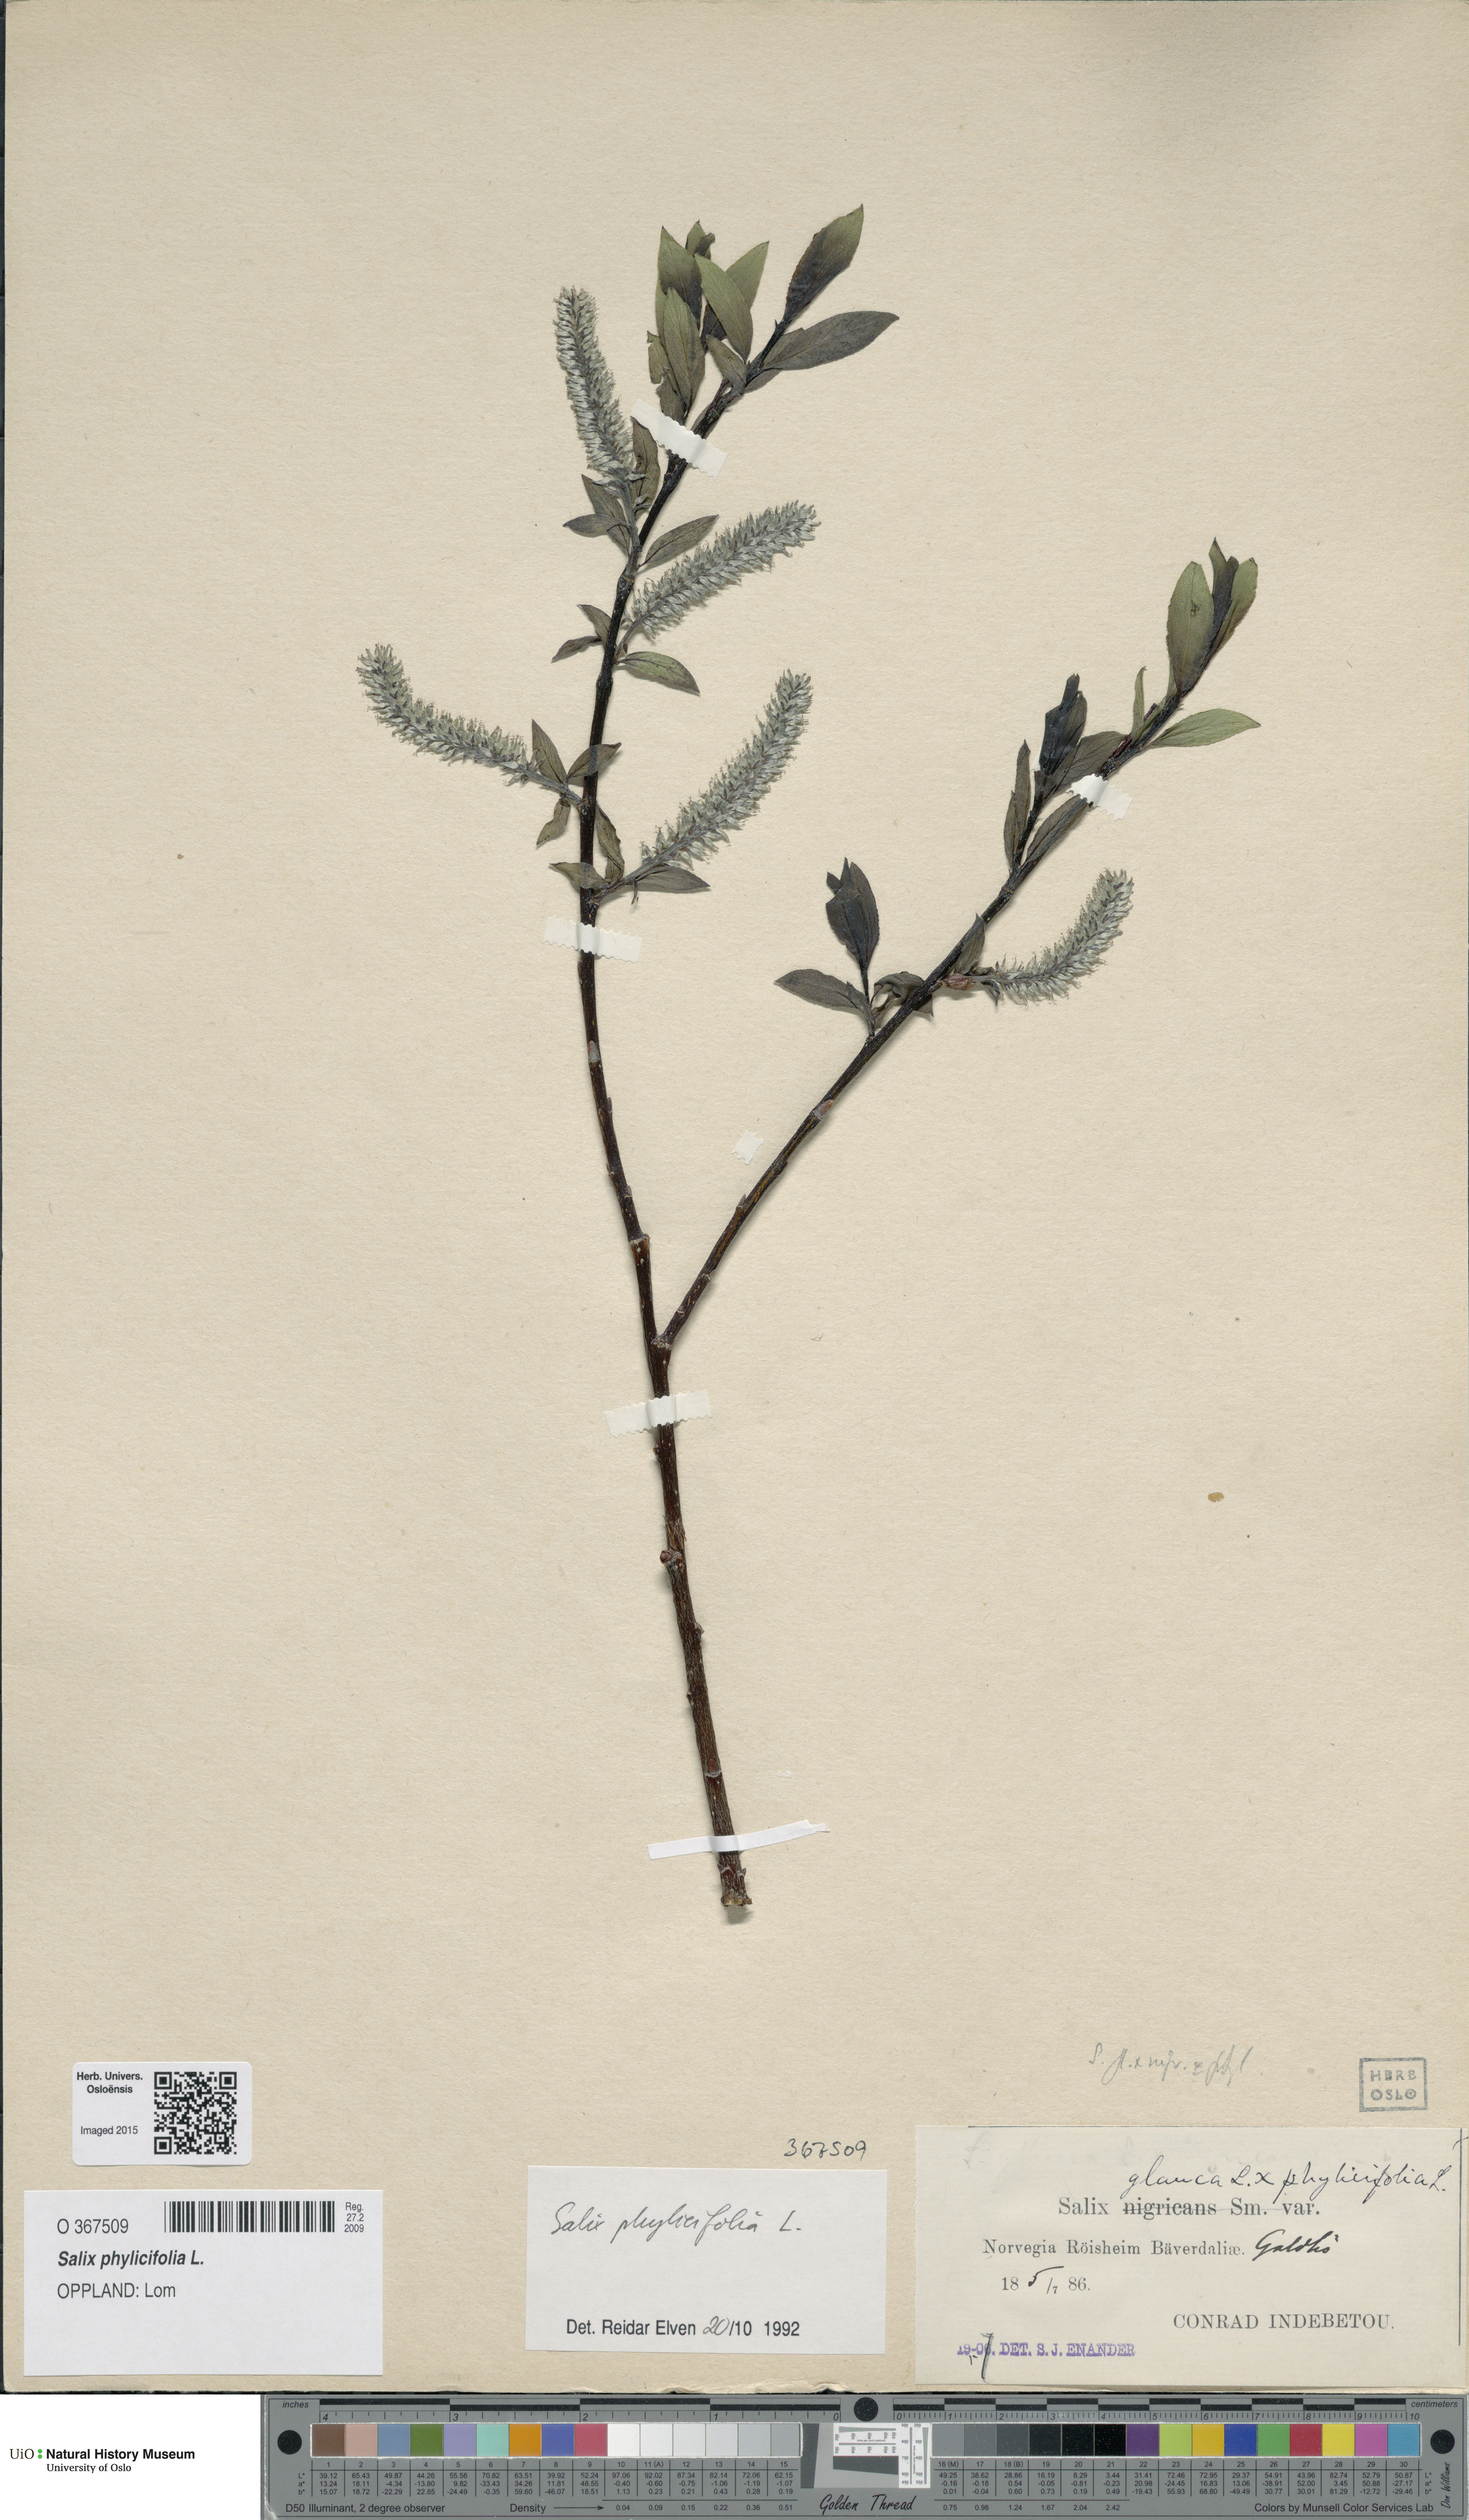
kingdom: Plantae
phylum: Tracheophyta
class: Magnoliopsida
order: Malpighiales
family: Salicaceae
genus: Salix
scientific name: Salix phylicifolia
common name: Tea-leaved willow
